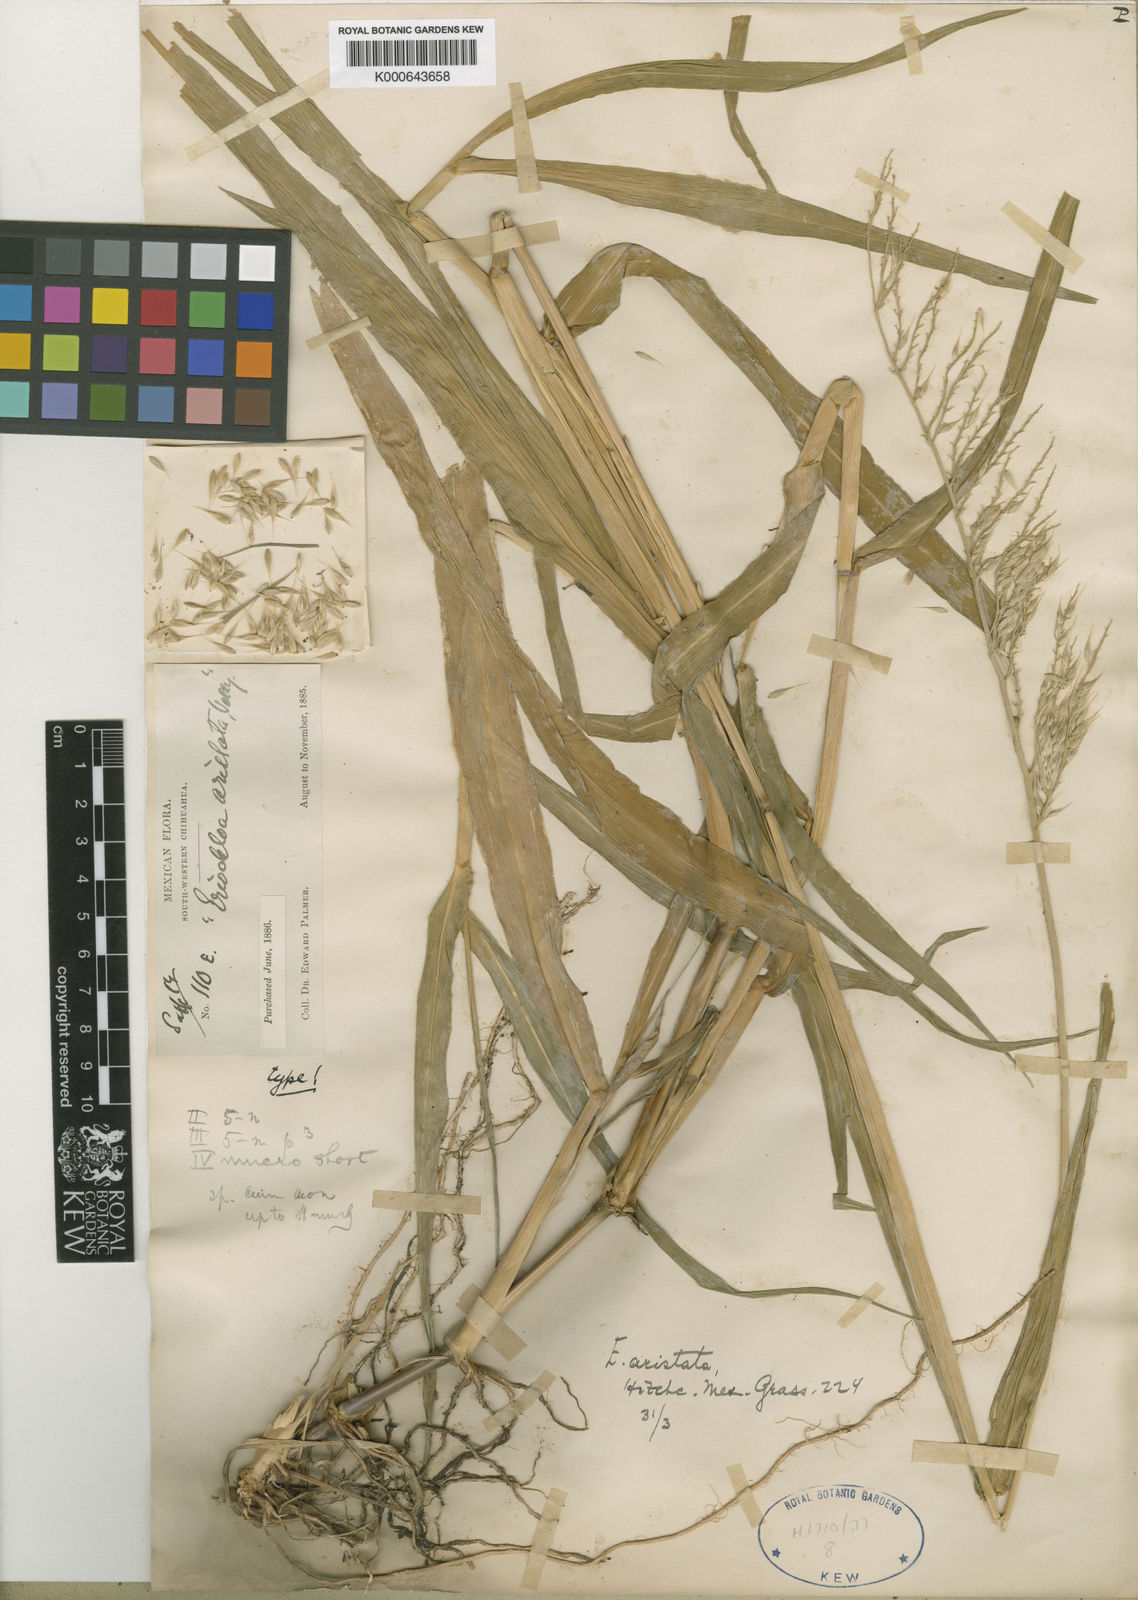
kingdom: Plantae
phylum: Tracheophyta
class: Liliopsida
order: Poales
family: Poaceae
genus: Eriochloa
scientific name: Eriochloa aristata
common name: Bearded cup grass
